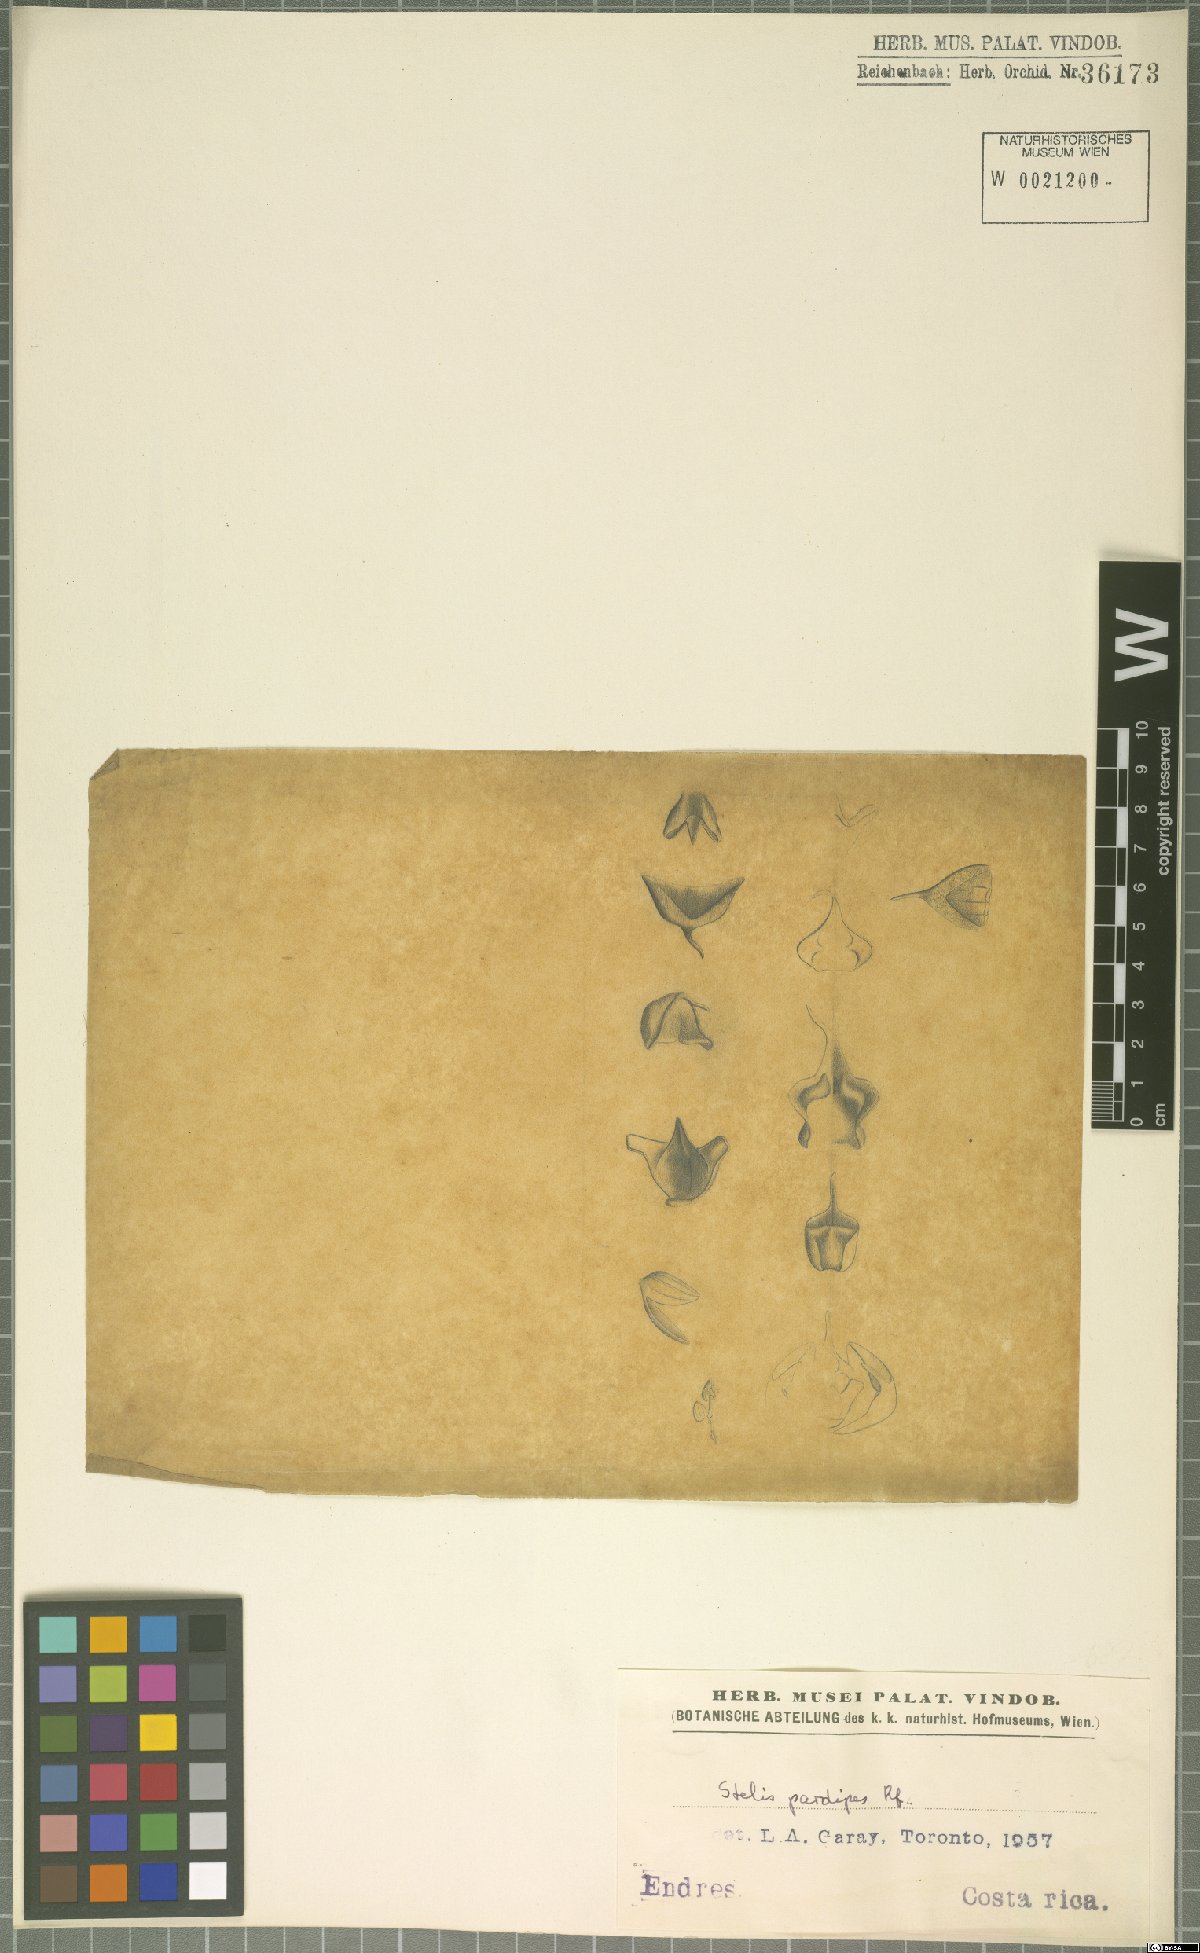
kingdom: Plantae
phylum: Tracheophyta
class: Liliopsida
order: Asparagales
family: Orchidaceae
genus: Stelis
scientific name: Stelis pardipes
